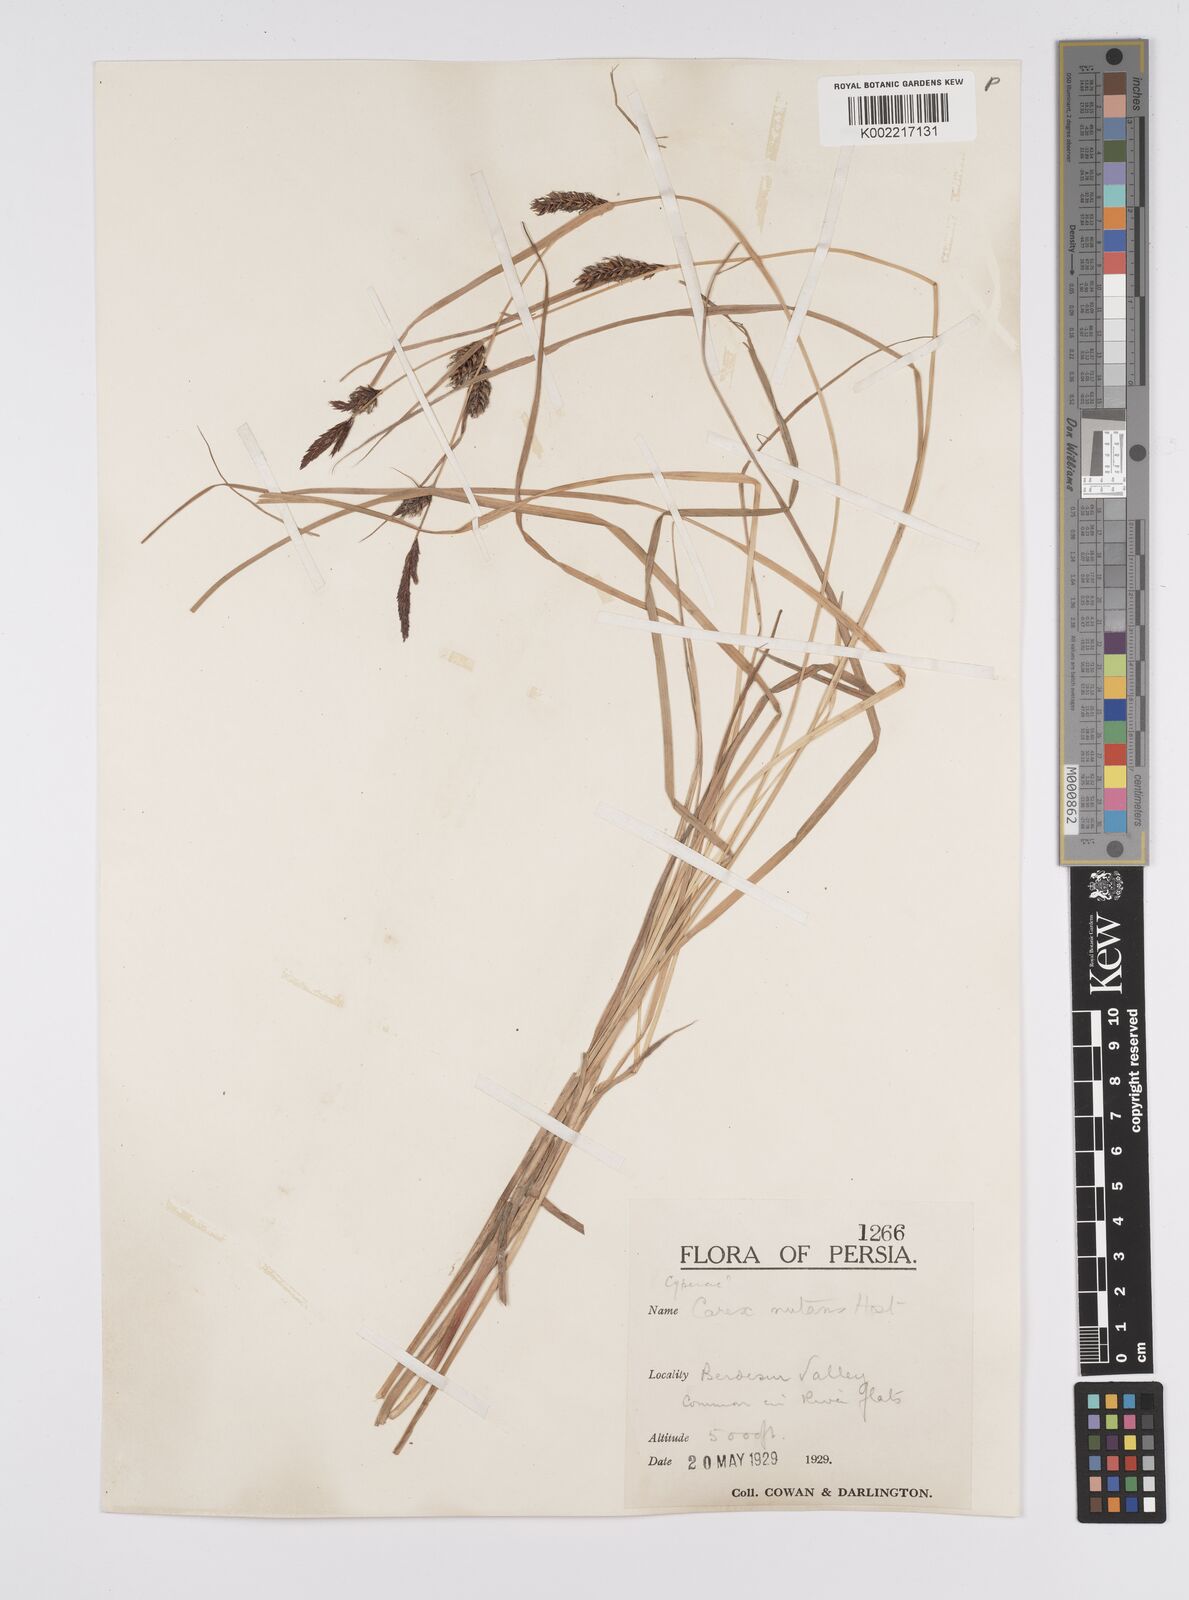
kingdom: Plantae
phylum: Tracheophyta
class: Liliopsida
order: Poales
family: Cyperaceae
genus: Carex
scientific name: Carex melanostachya
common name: Black-spiked sedge
